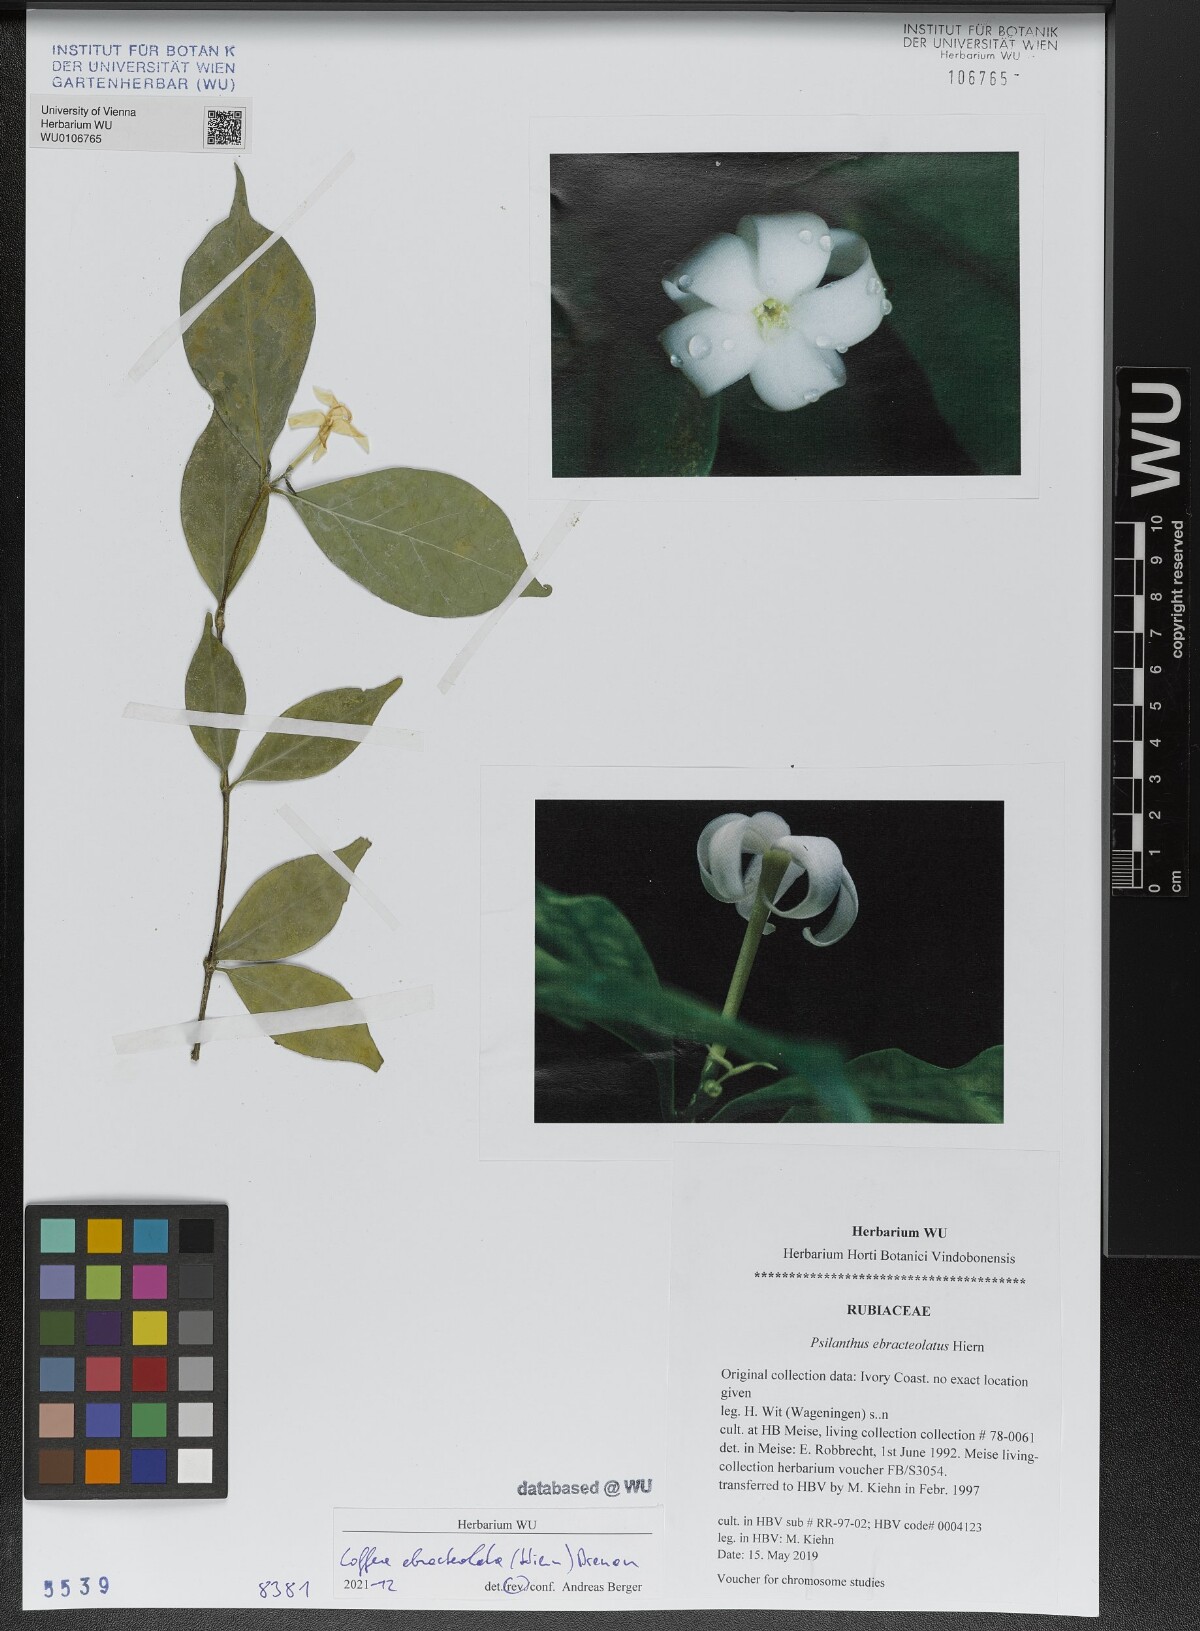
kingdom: Plantae
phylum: Tracheophyta
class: Magnoliopsida
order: Gentianales
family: Rubiaceae
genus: Coffea
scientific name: Coffea ebracteolata
